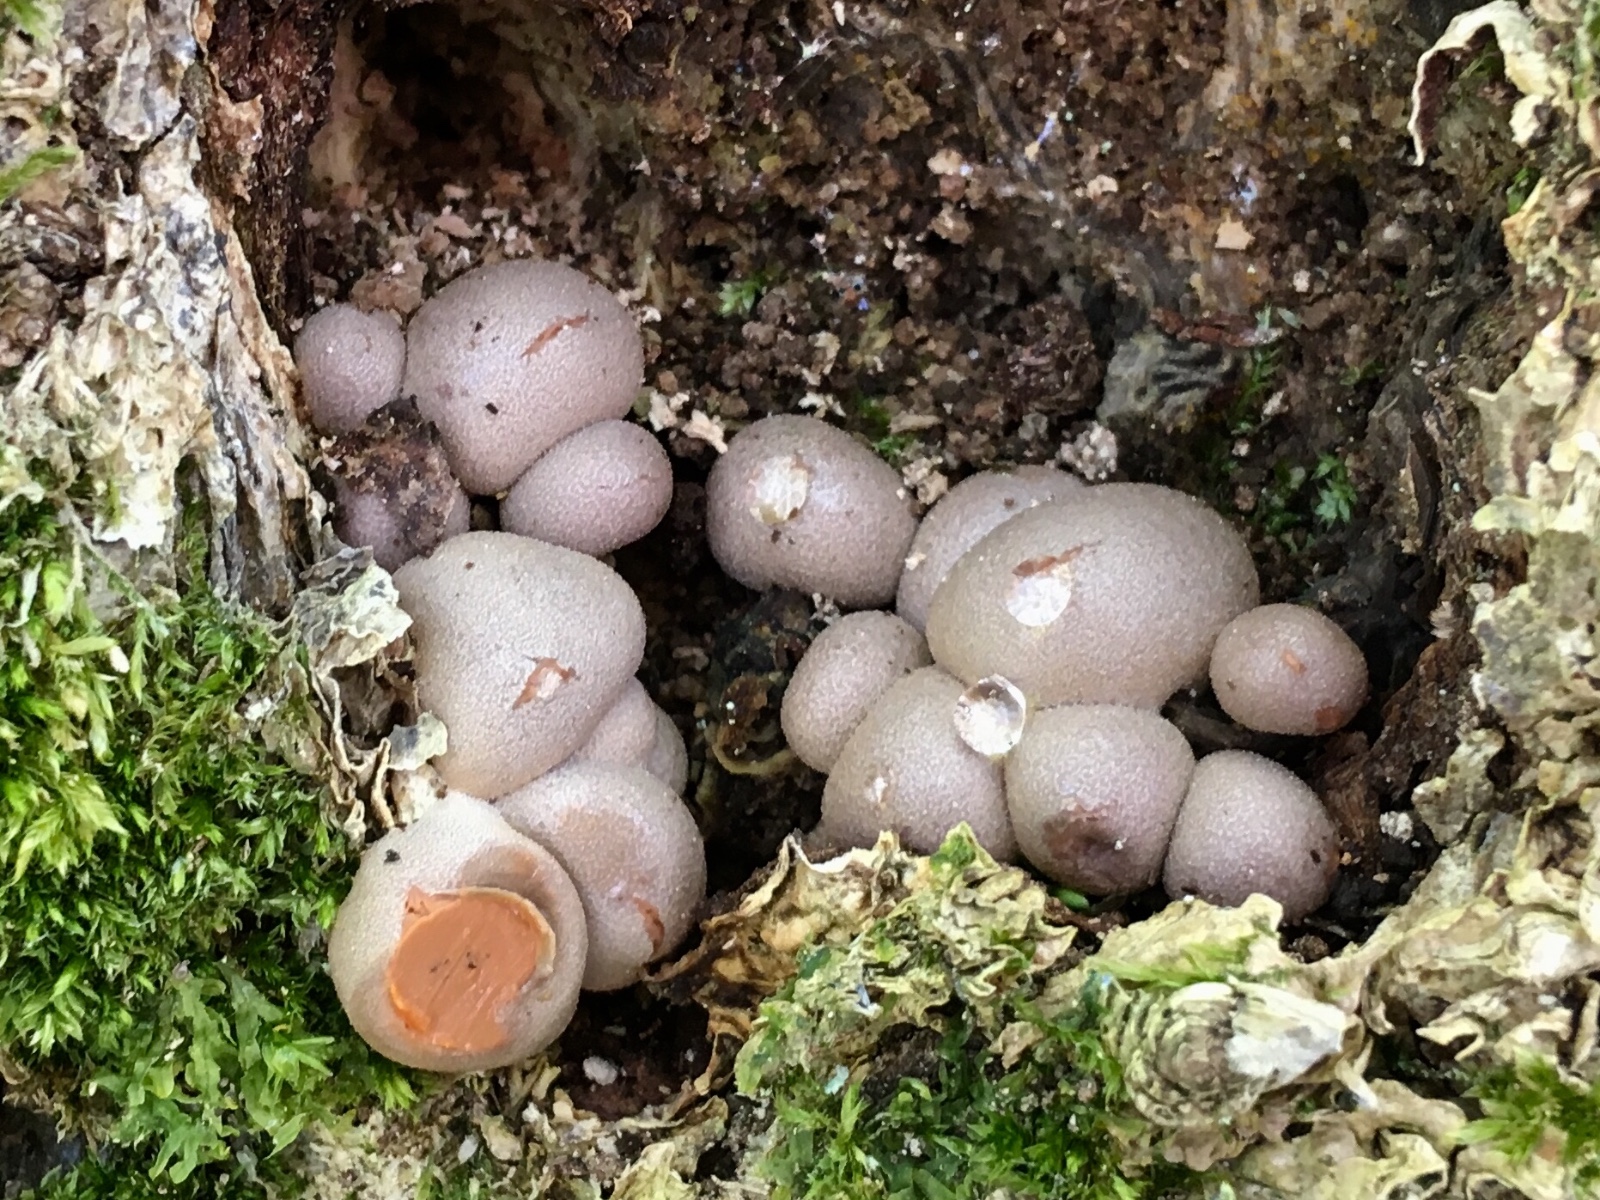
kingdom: Protozoa
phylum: Mycetozoa
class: Myxomycetes
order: Cribrariales
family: Tubiferaceae
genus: Lycogala
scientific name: Lycogala epidendrum
